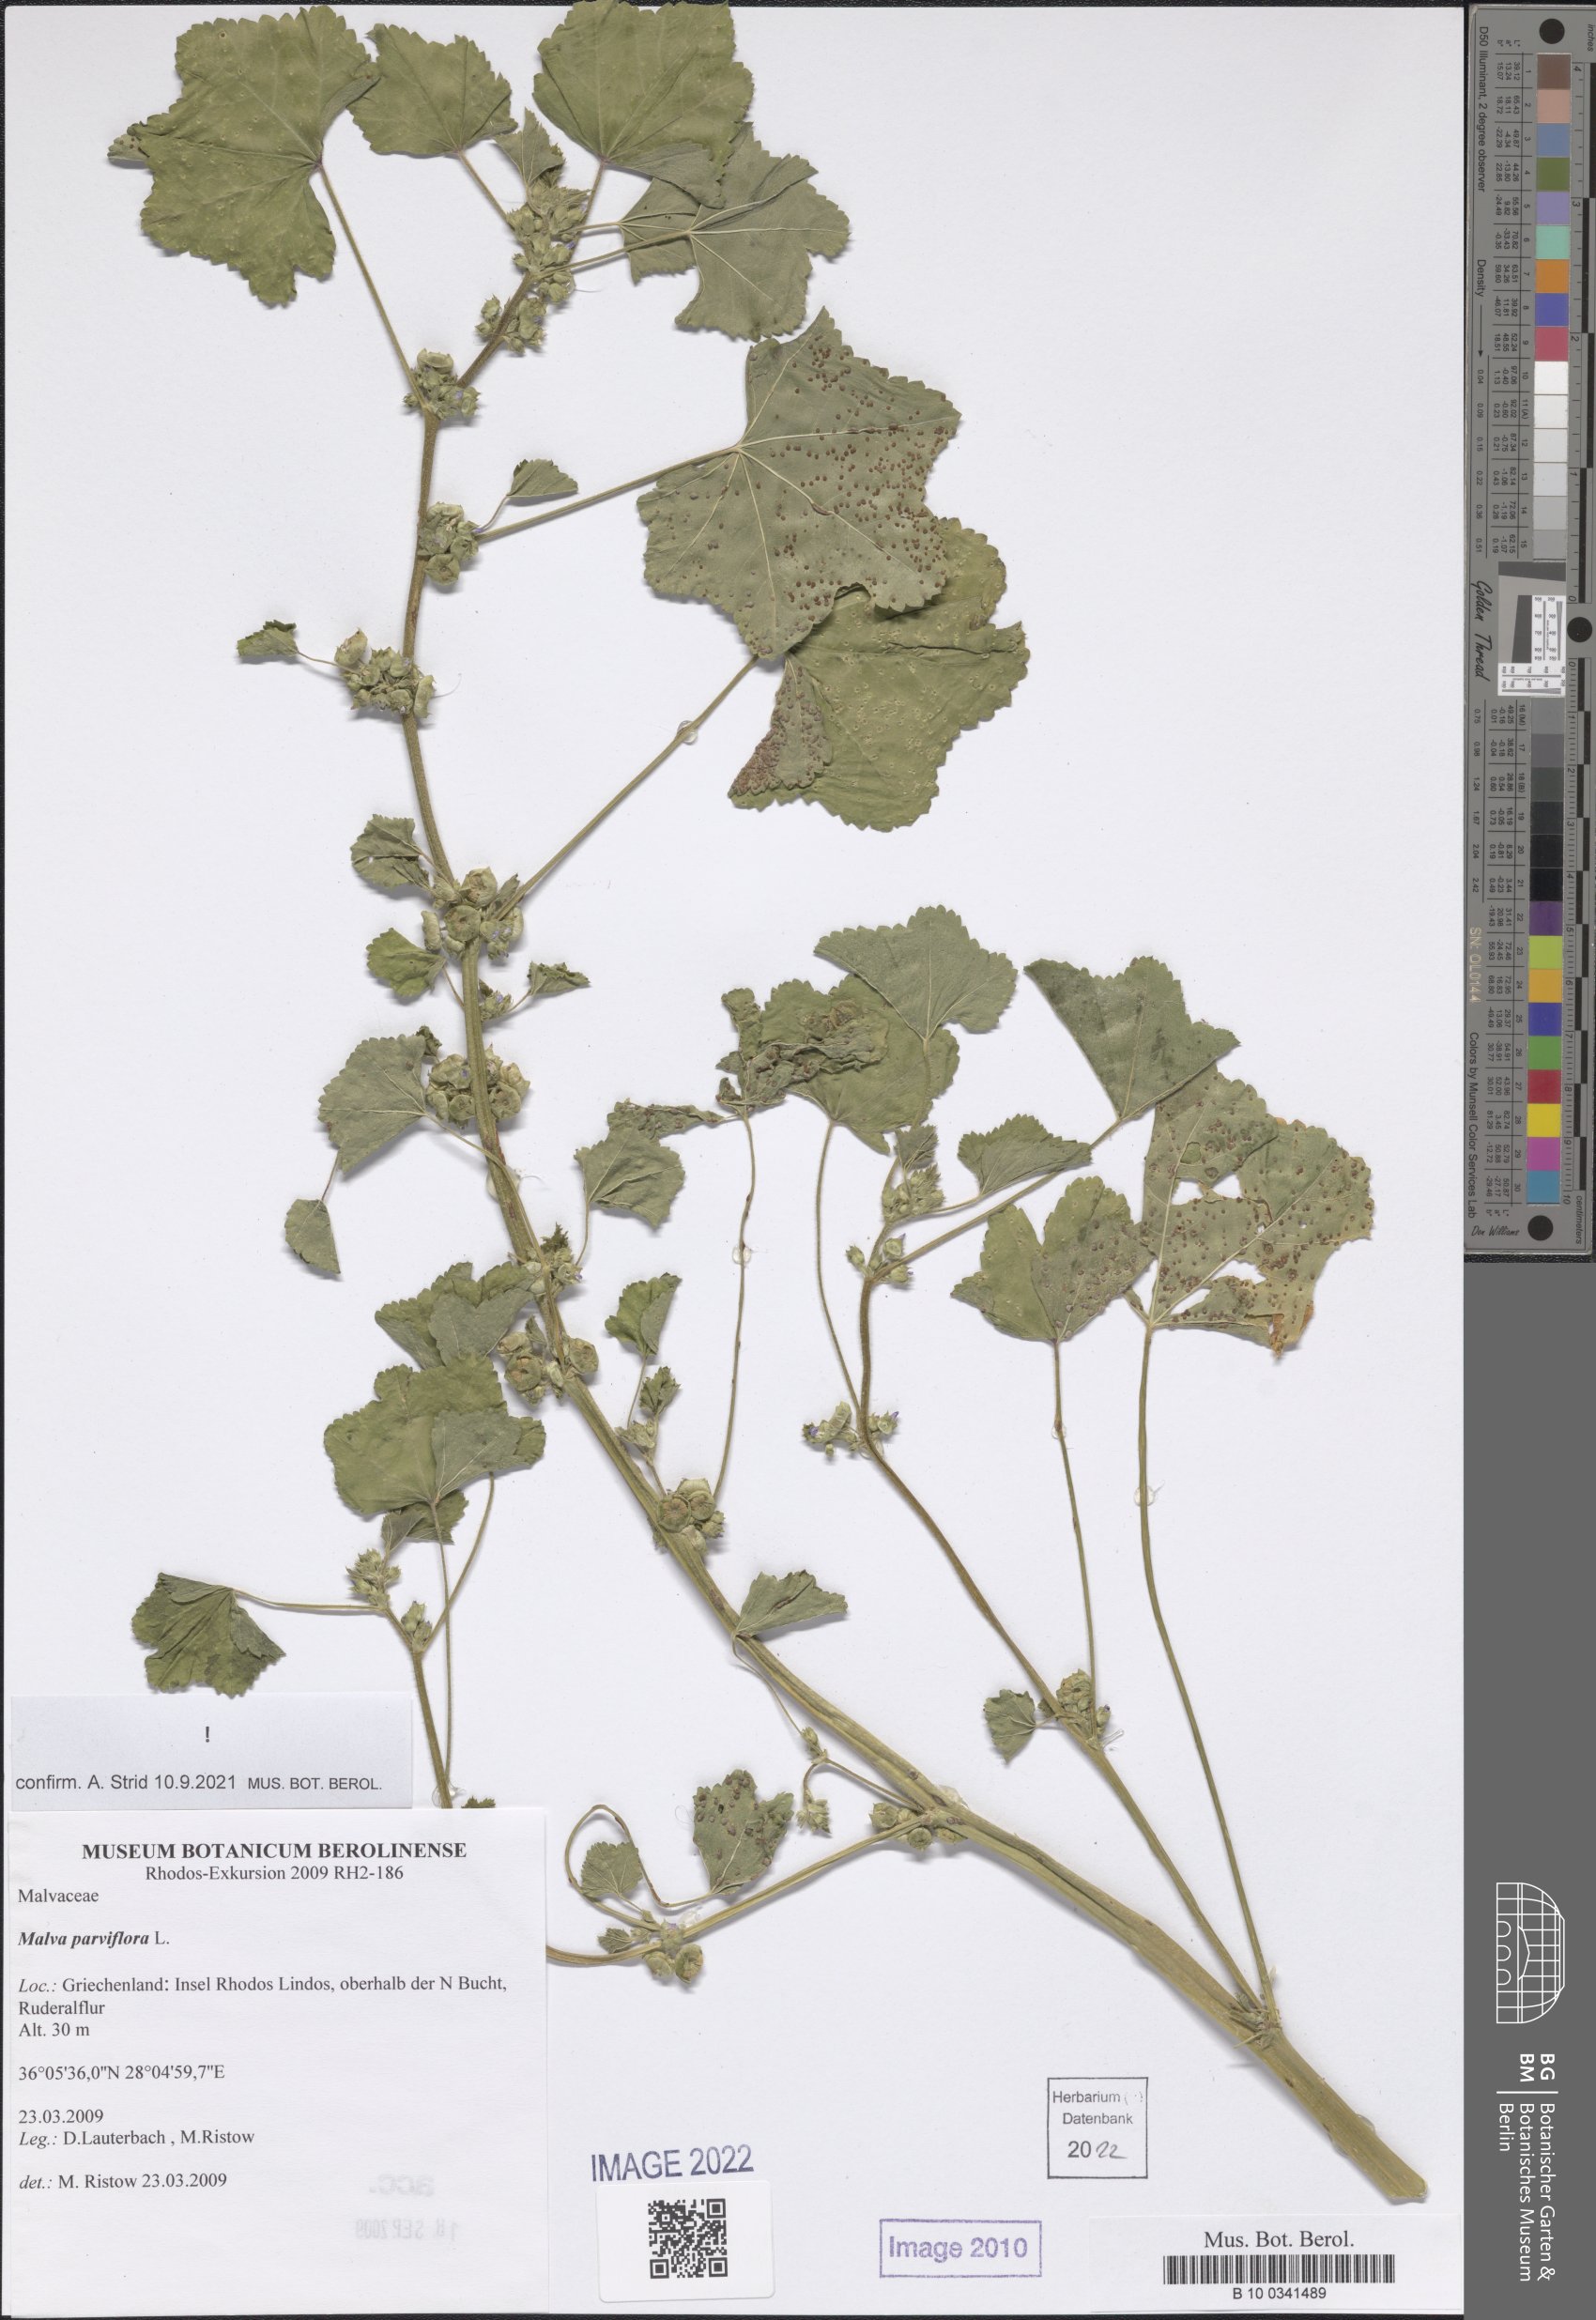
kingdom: Plantae
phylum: Tracheophyta
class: Magnoliopsida
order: Malvales
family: Malvaceae
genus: Malva
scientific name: Malva parviflora
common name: Least mallow
